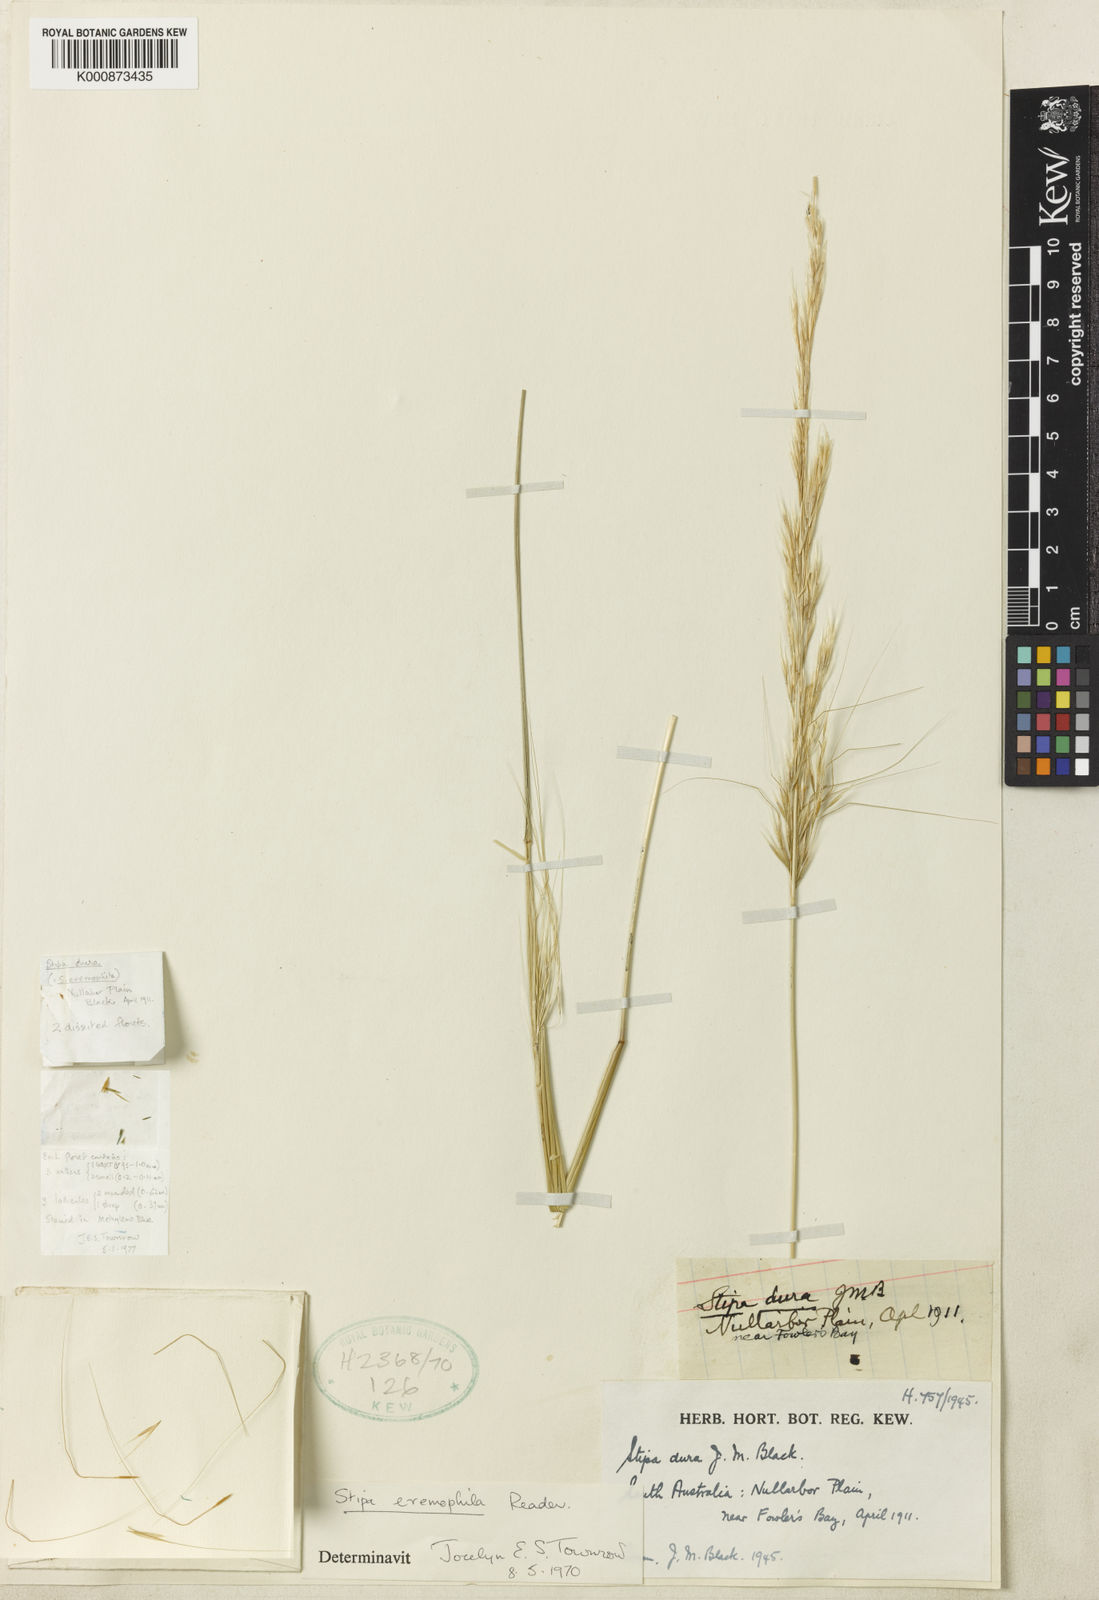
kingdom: Plantae
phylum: Tracheophyta
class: Liliopsida
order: Poales
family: Poaceae
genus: Austrostipa
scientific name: Austrostipa eremophila
